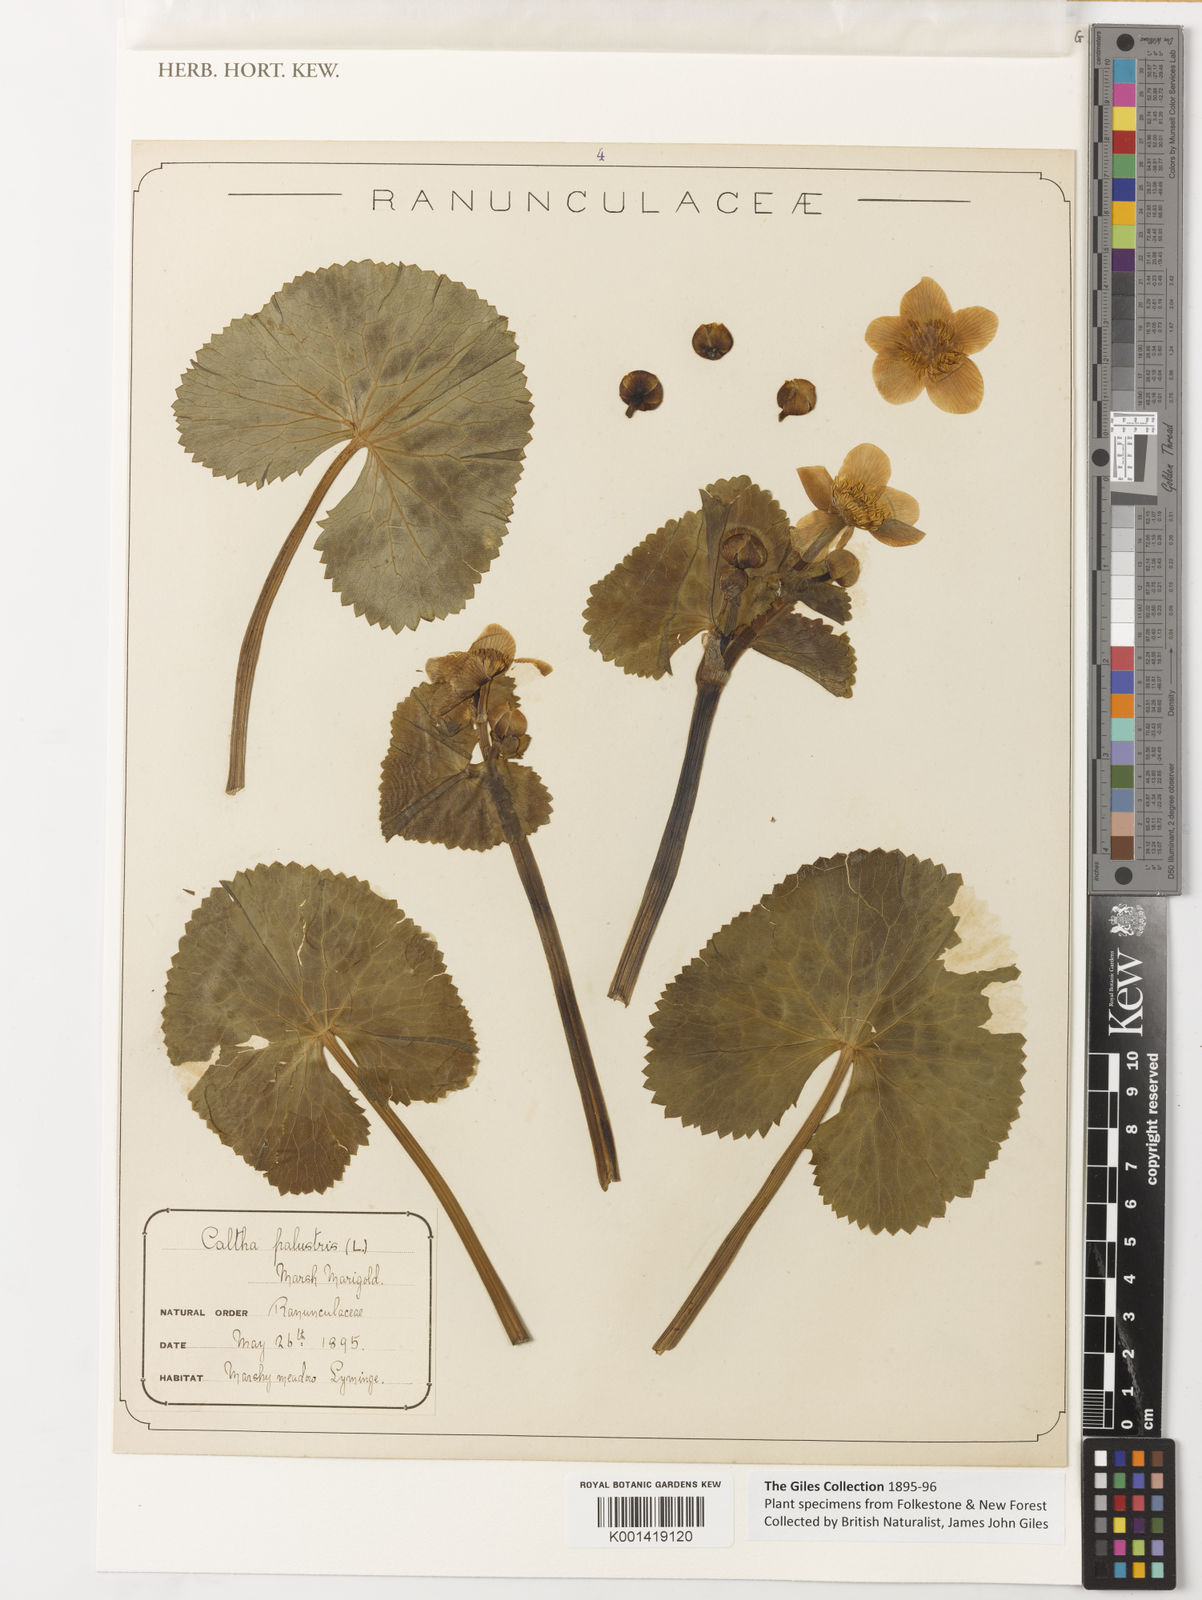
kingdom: Plantae
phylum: Tracheophyta
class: Magnoliopsida
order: Ranunculales
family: Ranunculaceae
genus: Caltha
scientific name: Caltha palustris
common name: Marsh marigold
